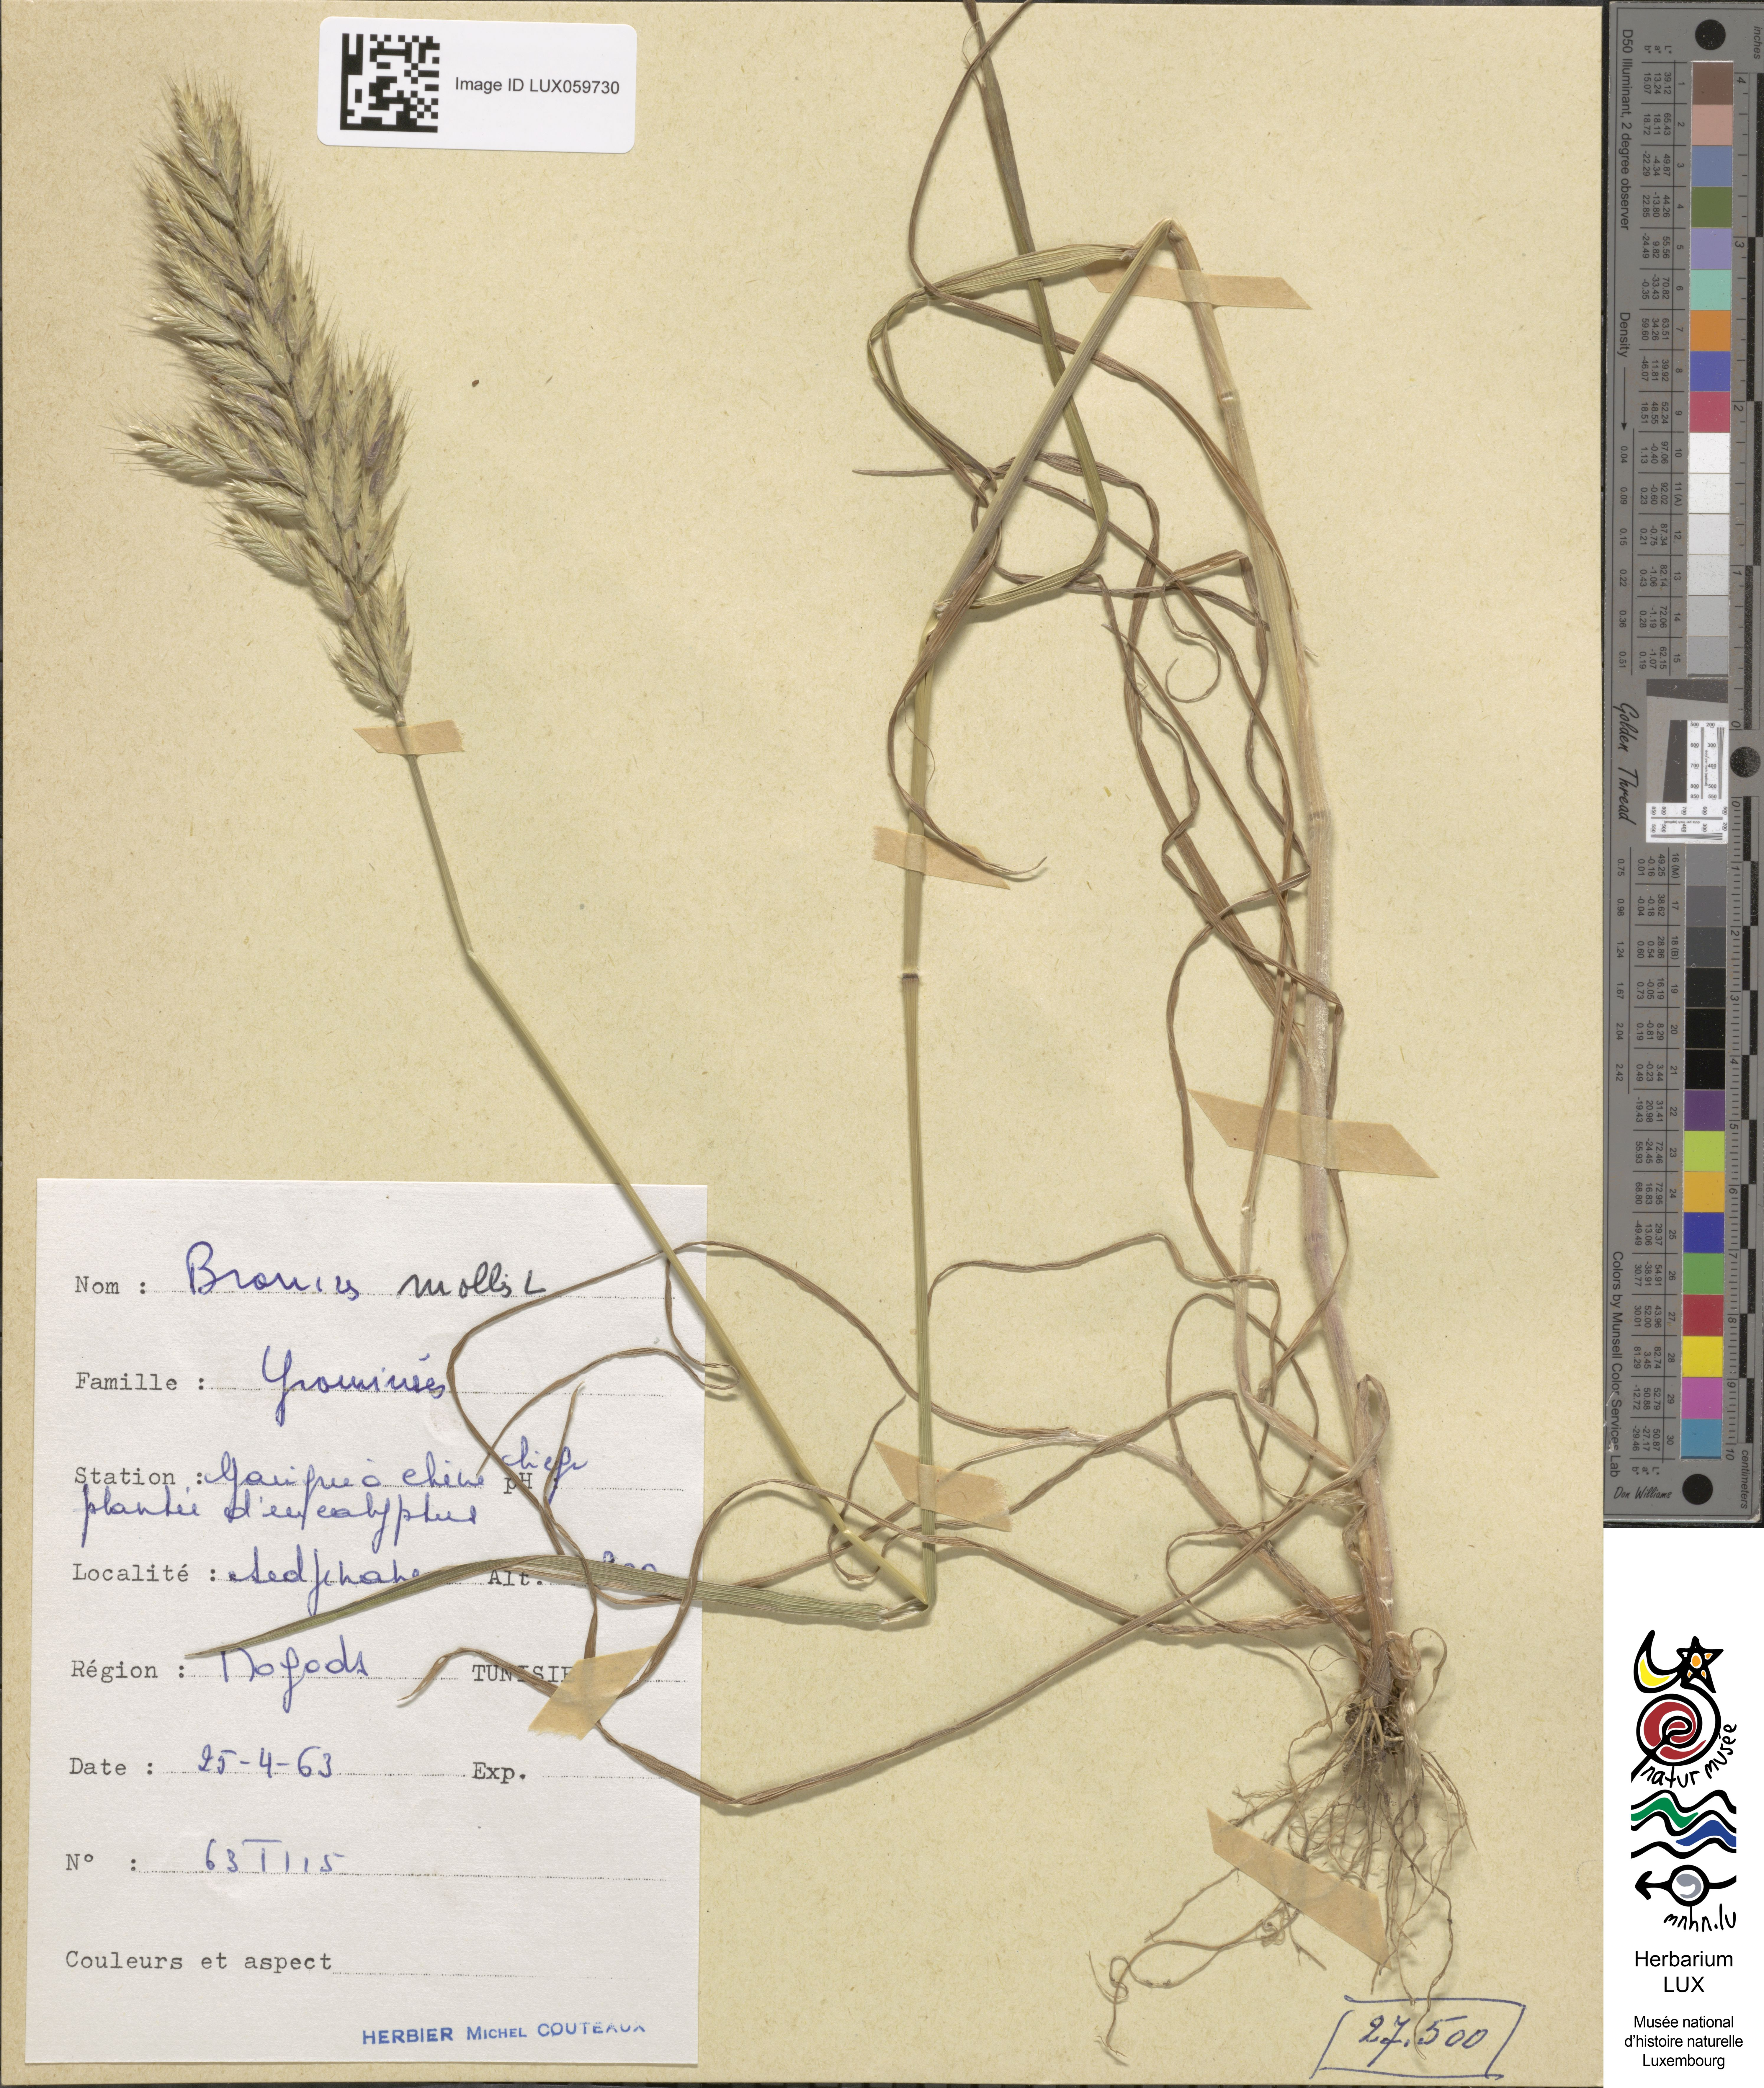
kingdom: Plantae
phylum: Tracheophyta
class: Liliopsida
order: Poales
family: Poaceae
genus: Bromus
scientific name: Bromus hordeaceus
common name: Soft brome
